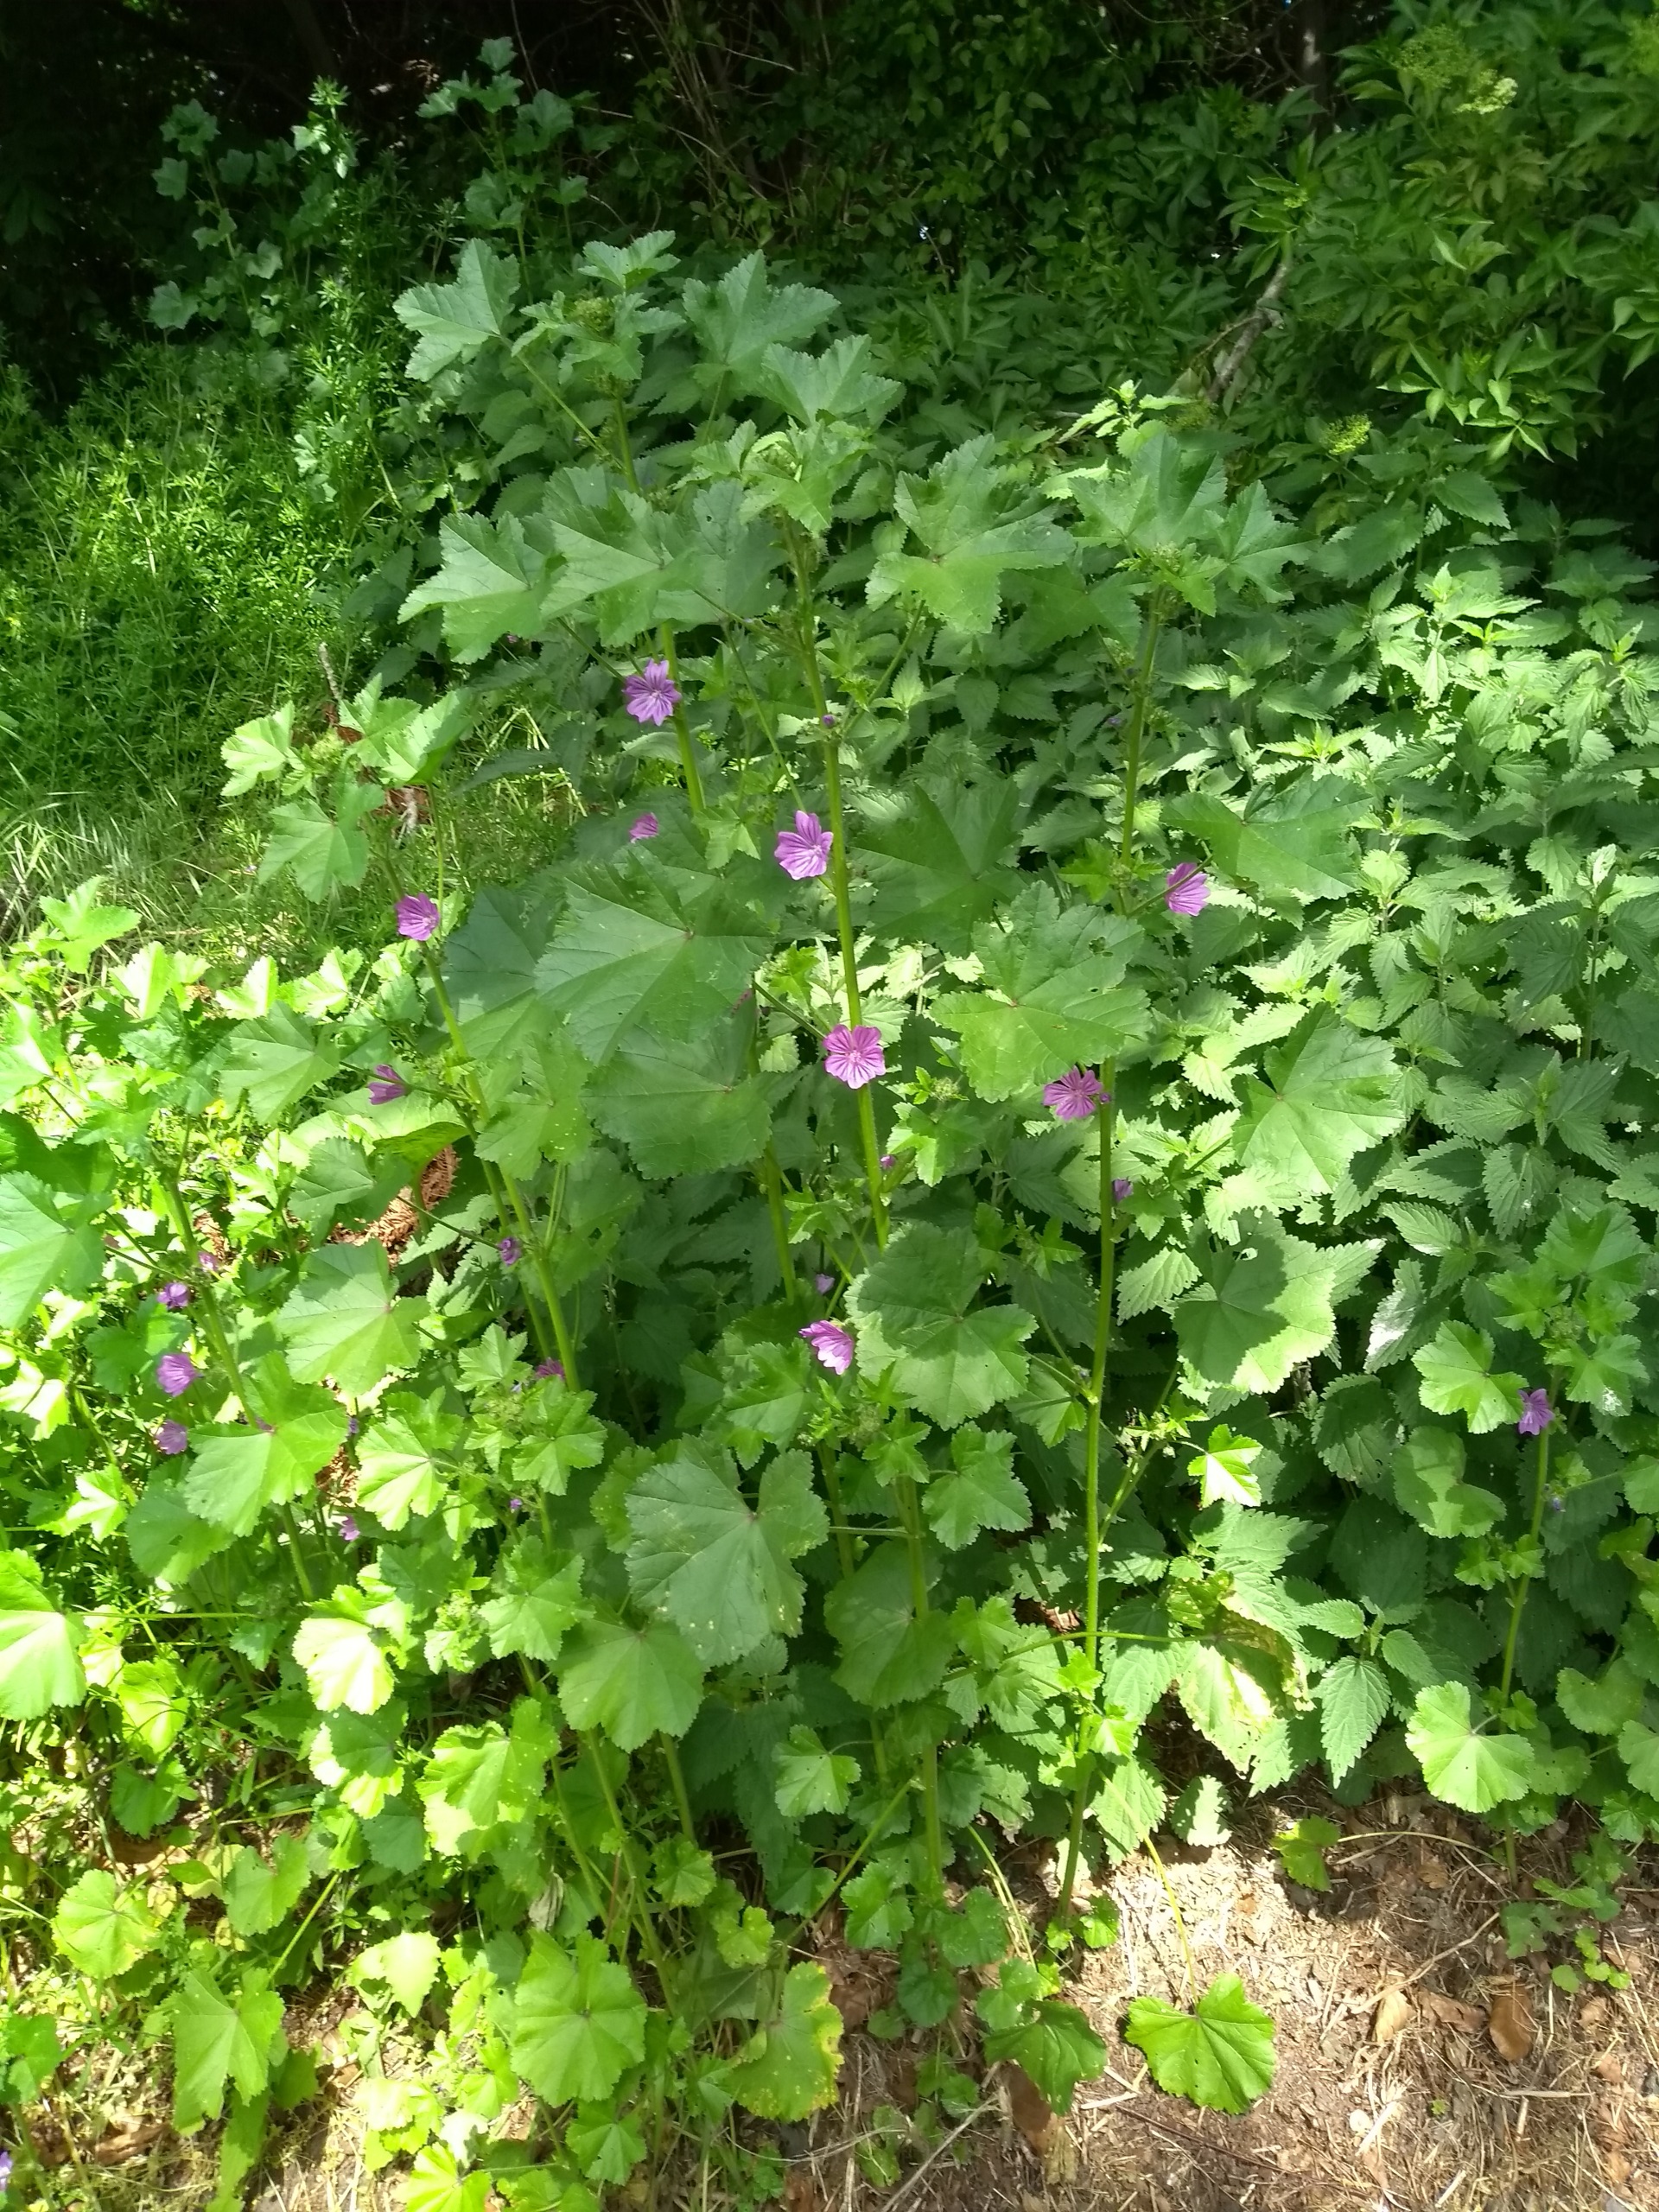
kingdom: Plantae
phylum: Tracheophyta
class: Magnoliopsida
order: Malvales
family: Malvaceae
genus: Malva
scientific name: Malva sylvestris
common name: Almindelig katost
